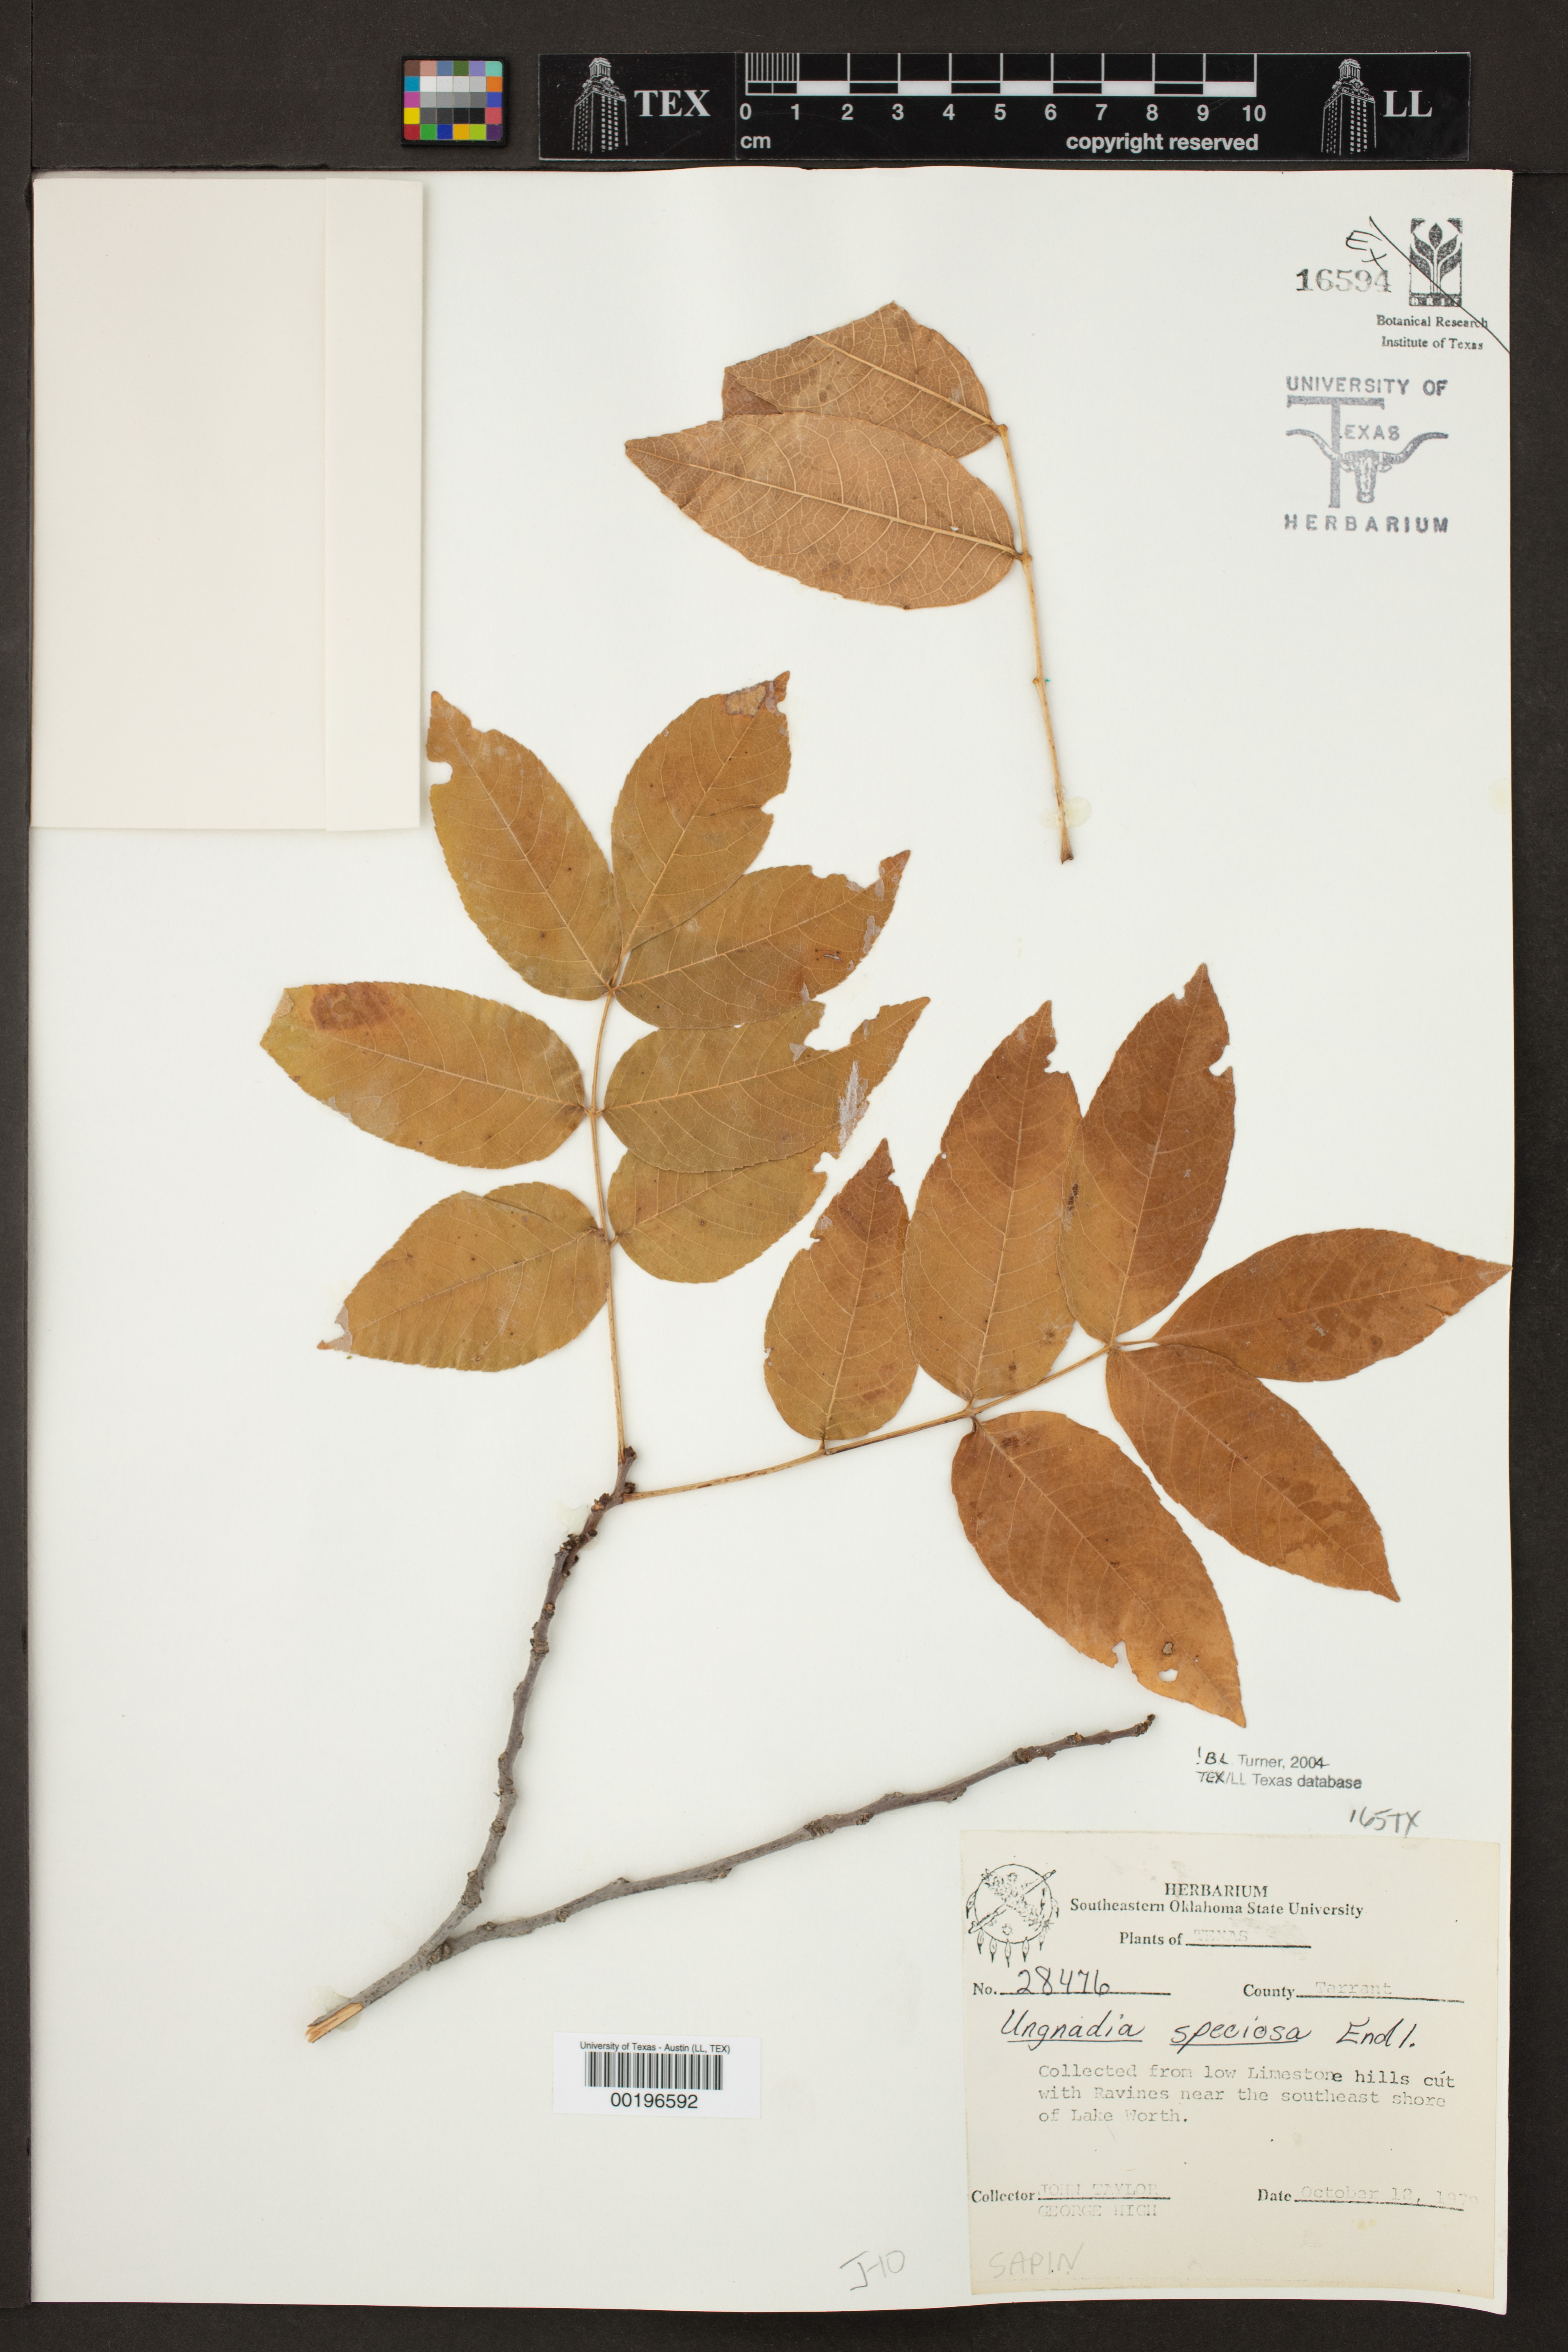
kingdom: Plantae
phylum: Tracheophyta
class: Magnoliopsida
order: Sapindales
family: Sapindaceae
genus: Ungnadia
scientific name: Ungnadia speciosa
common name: Texas-buckeye
